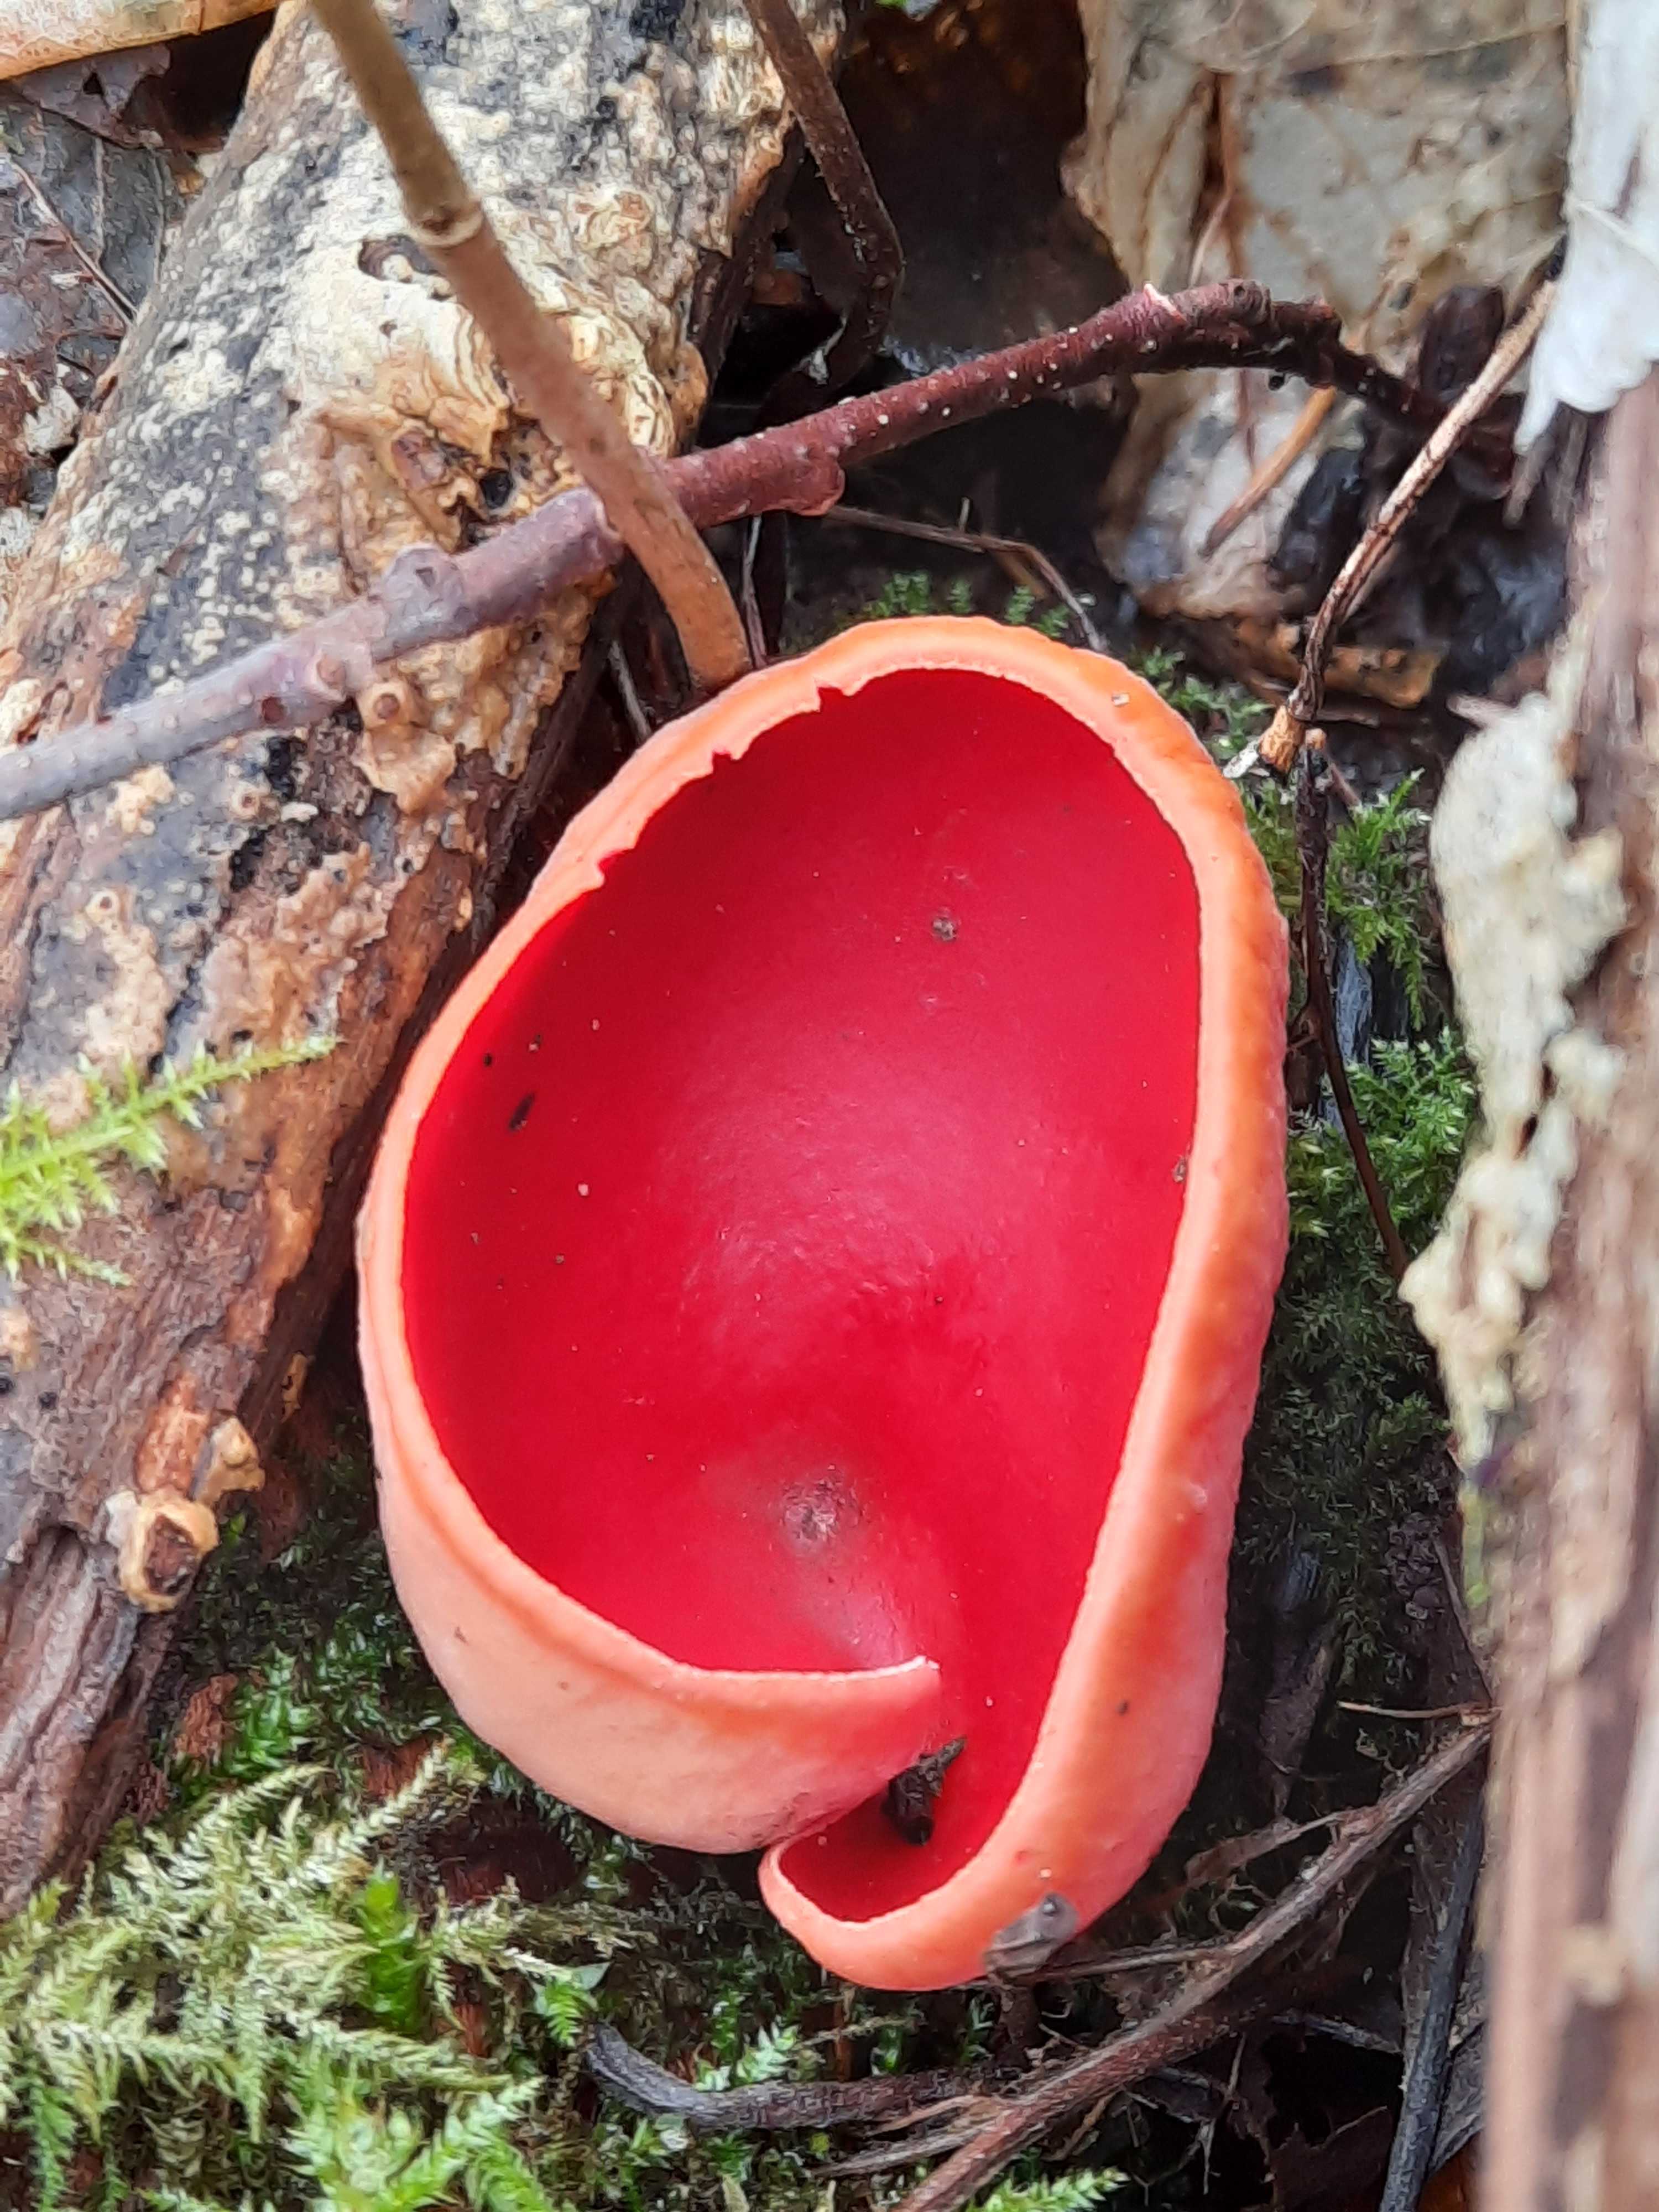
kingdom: Fungi
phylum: Ascomycota
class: Pezizomycetes
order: Pezizales
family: Sarcoscyphaceae
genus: Sarcoscypha
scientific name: Sarcoscypha austriaca
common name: krølhåret pragtbæger
